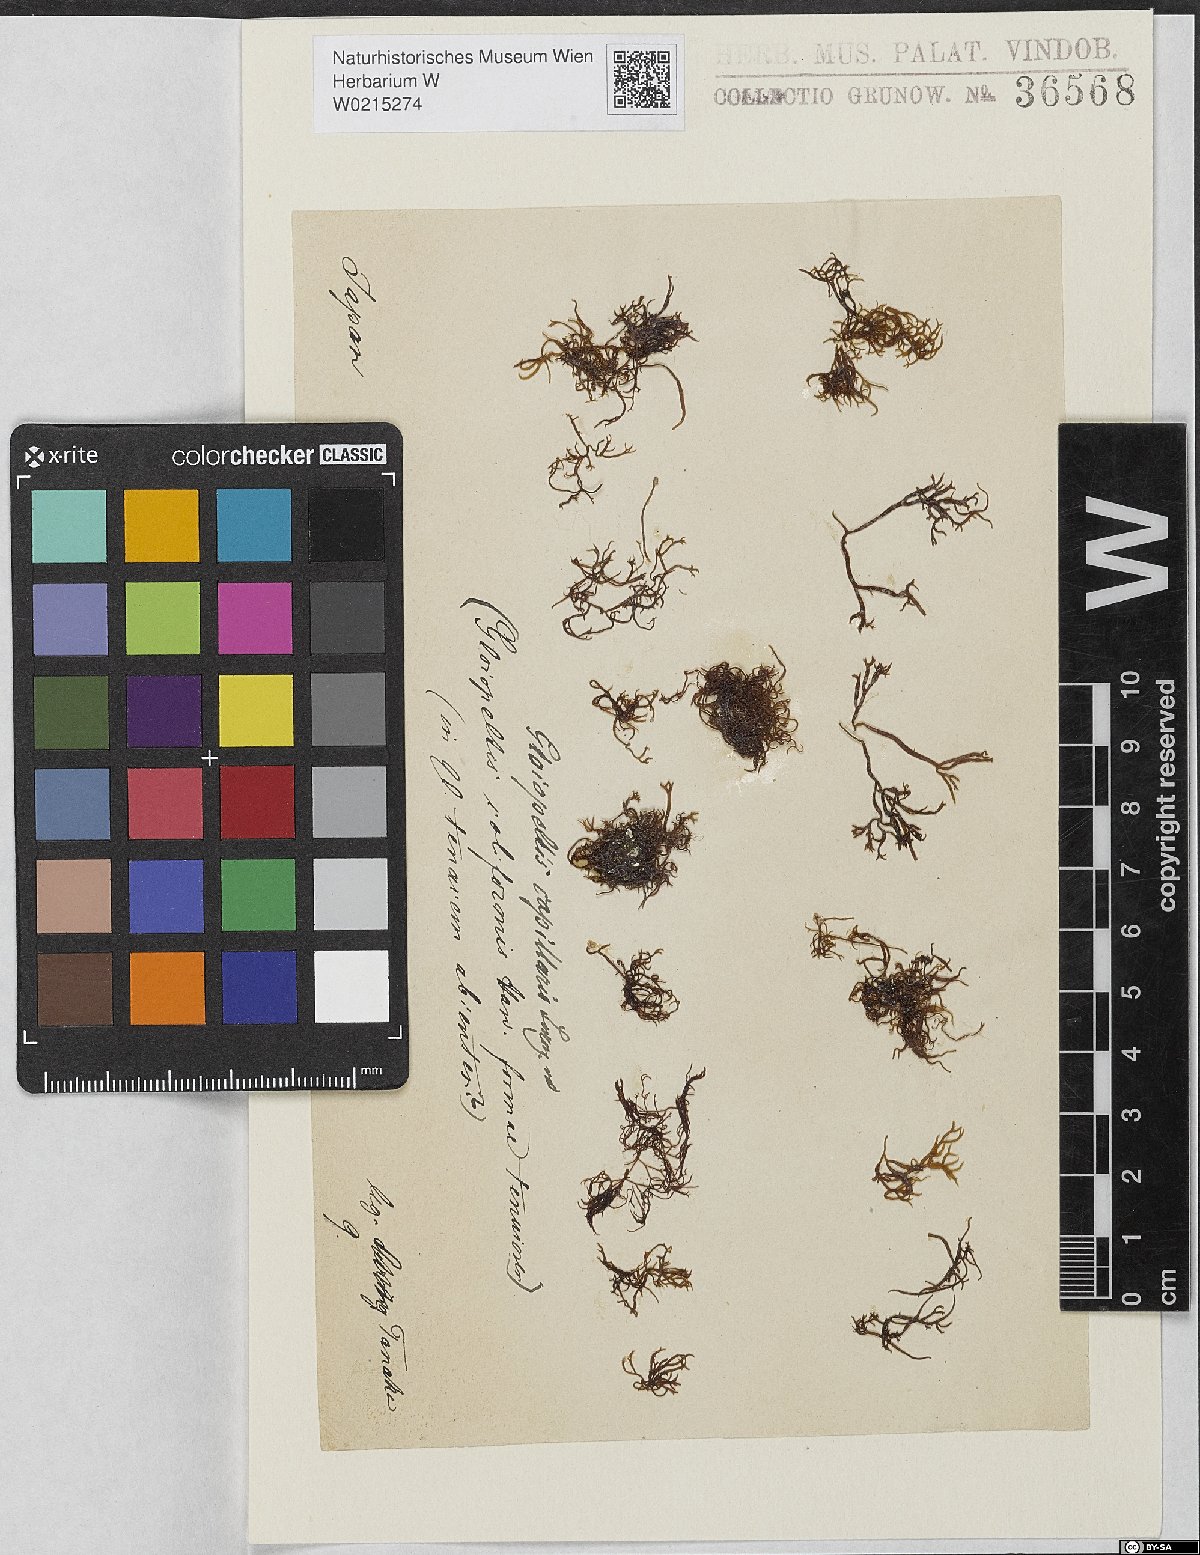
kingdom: Plantae
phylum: Rhodophyta
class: Florideophyceae
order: Gigartinales
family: Endocladiaceae
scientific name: Endocladiaceae
